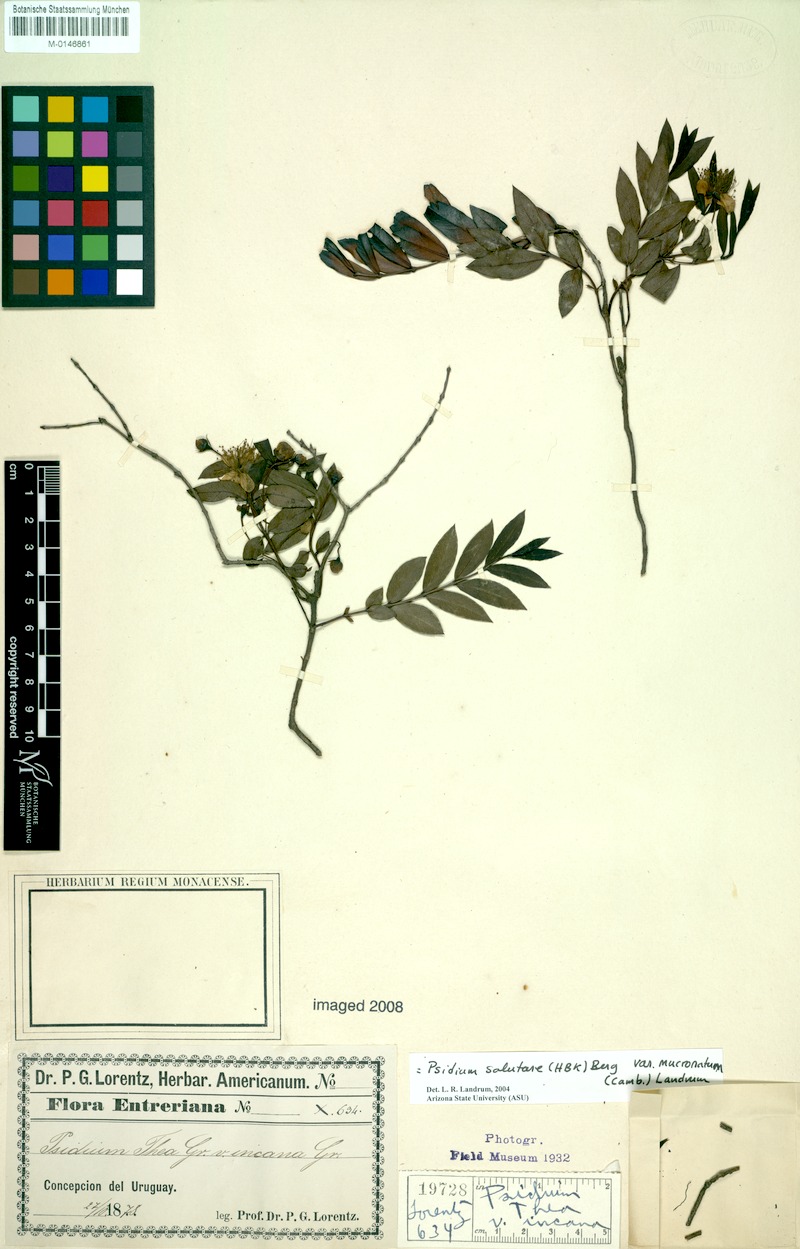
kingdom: Plantae
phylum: Tracheophyta
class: Magnoliopsida
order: Myrtales
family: Myrtaceae
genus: Psidium
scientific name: Psidium salutare
